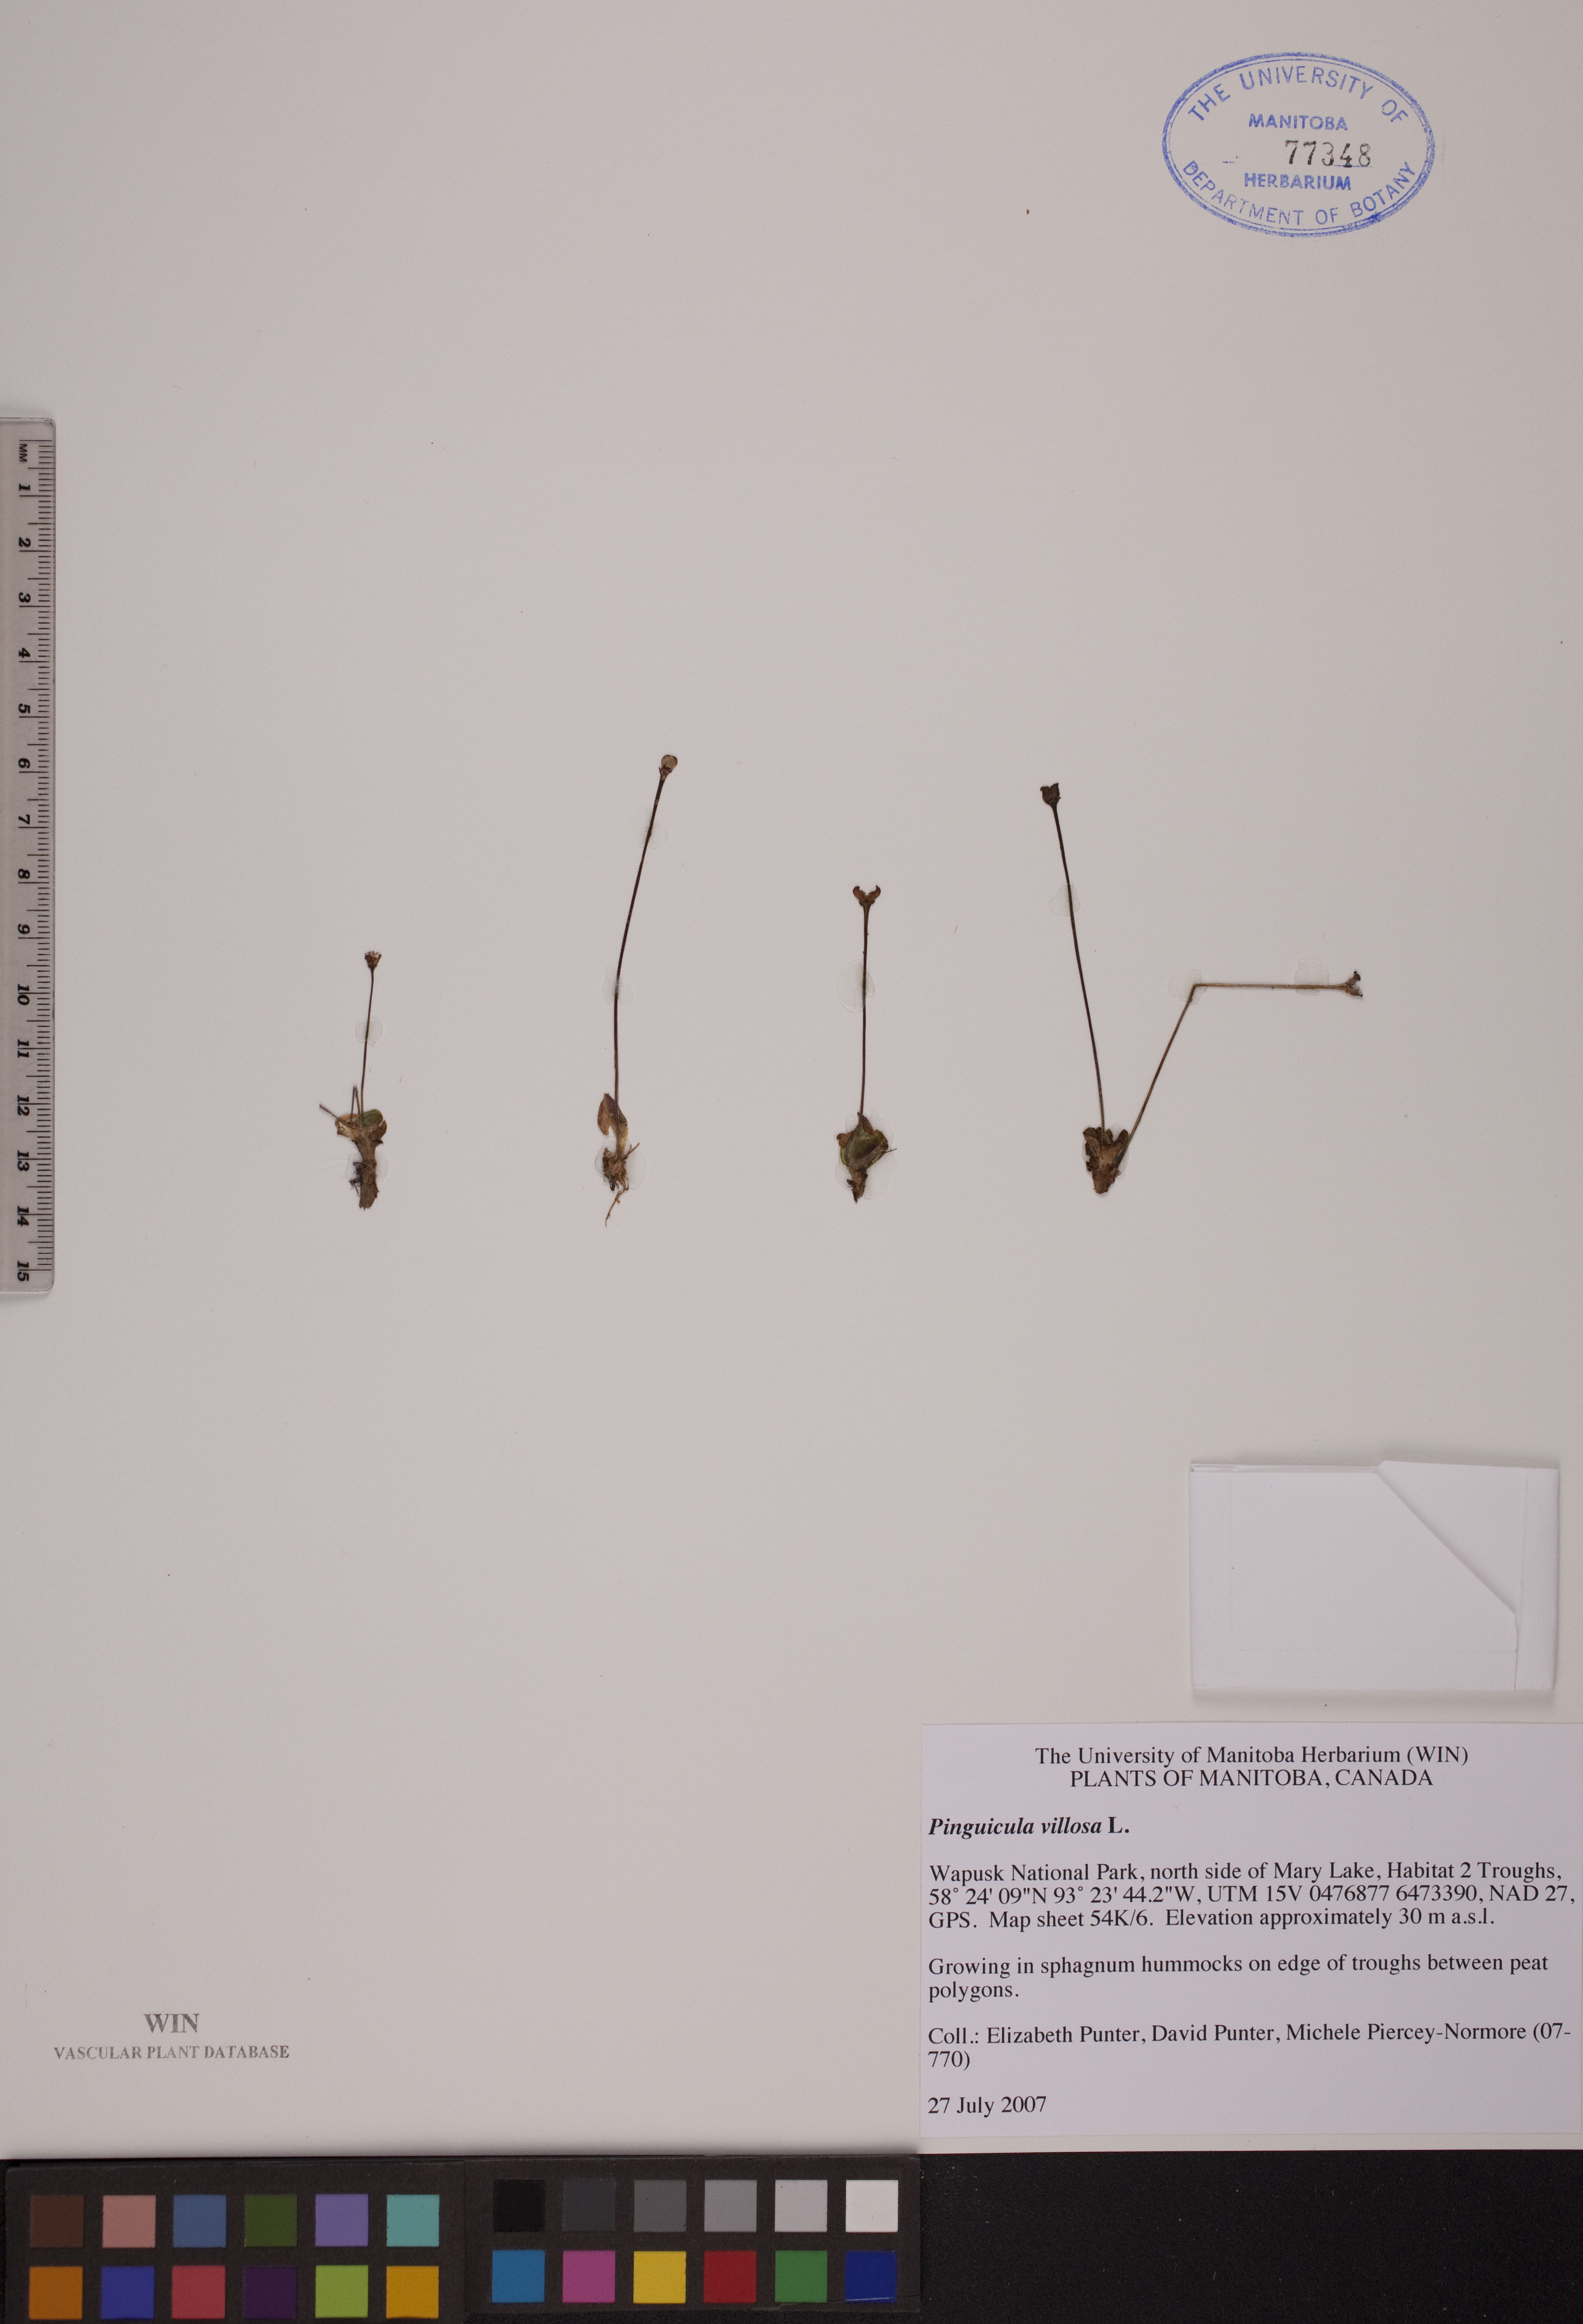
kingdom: Plantae
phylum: Tracheophyta
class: Magnoliopsida
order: Lamiales
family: Lentibulariaceae
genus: Pinguicula
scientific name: Pinguicula villosa
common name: Hairy butterwort
